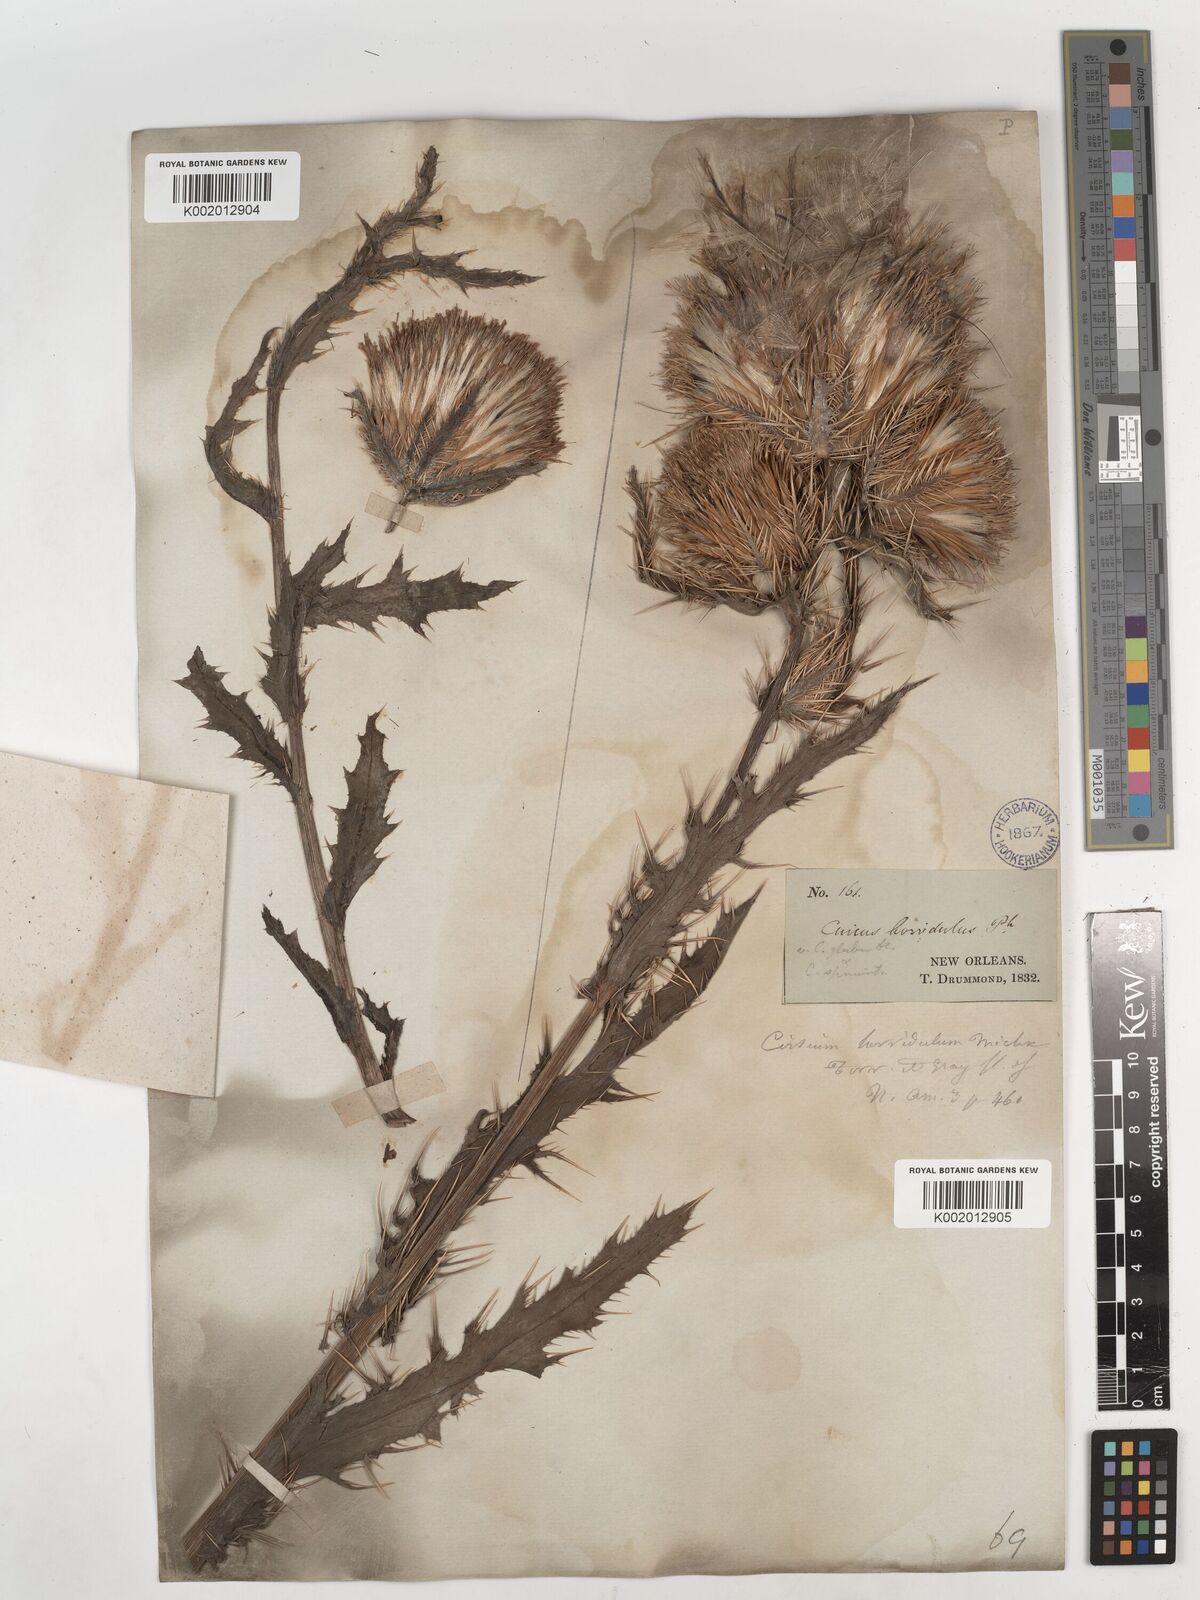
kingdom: Plantae
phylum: Tracheophyta
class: Magnoliopsida
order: Asterales
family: Asteraceae
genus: Cirsium
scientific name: Cirsium horridulum
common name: Bristly thistle
